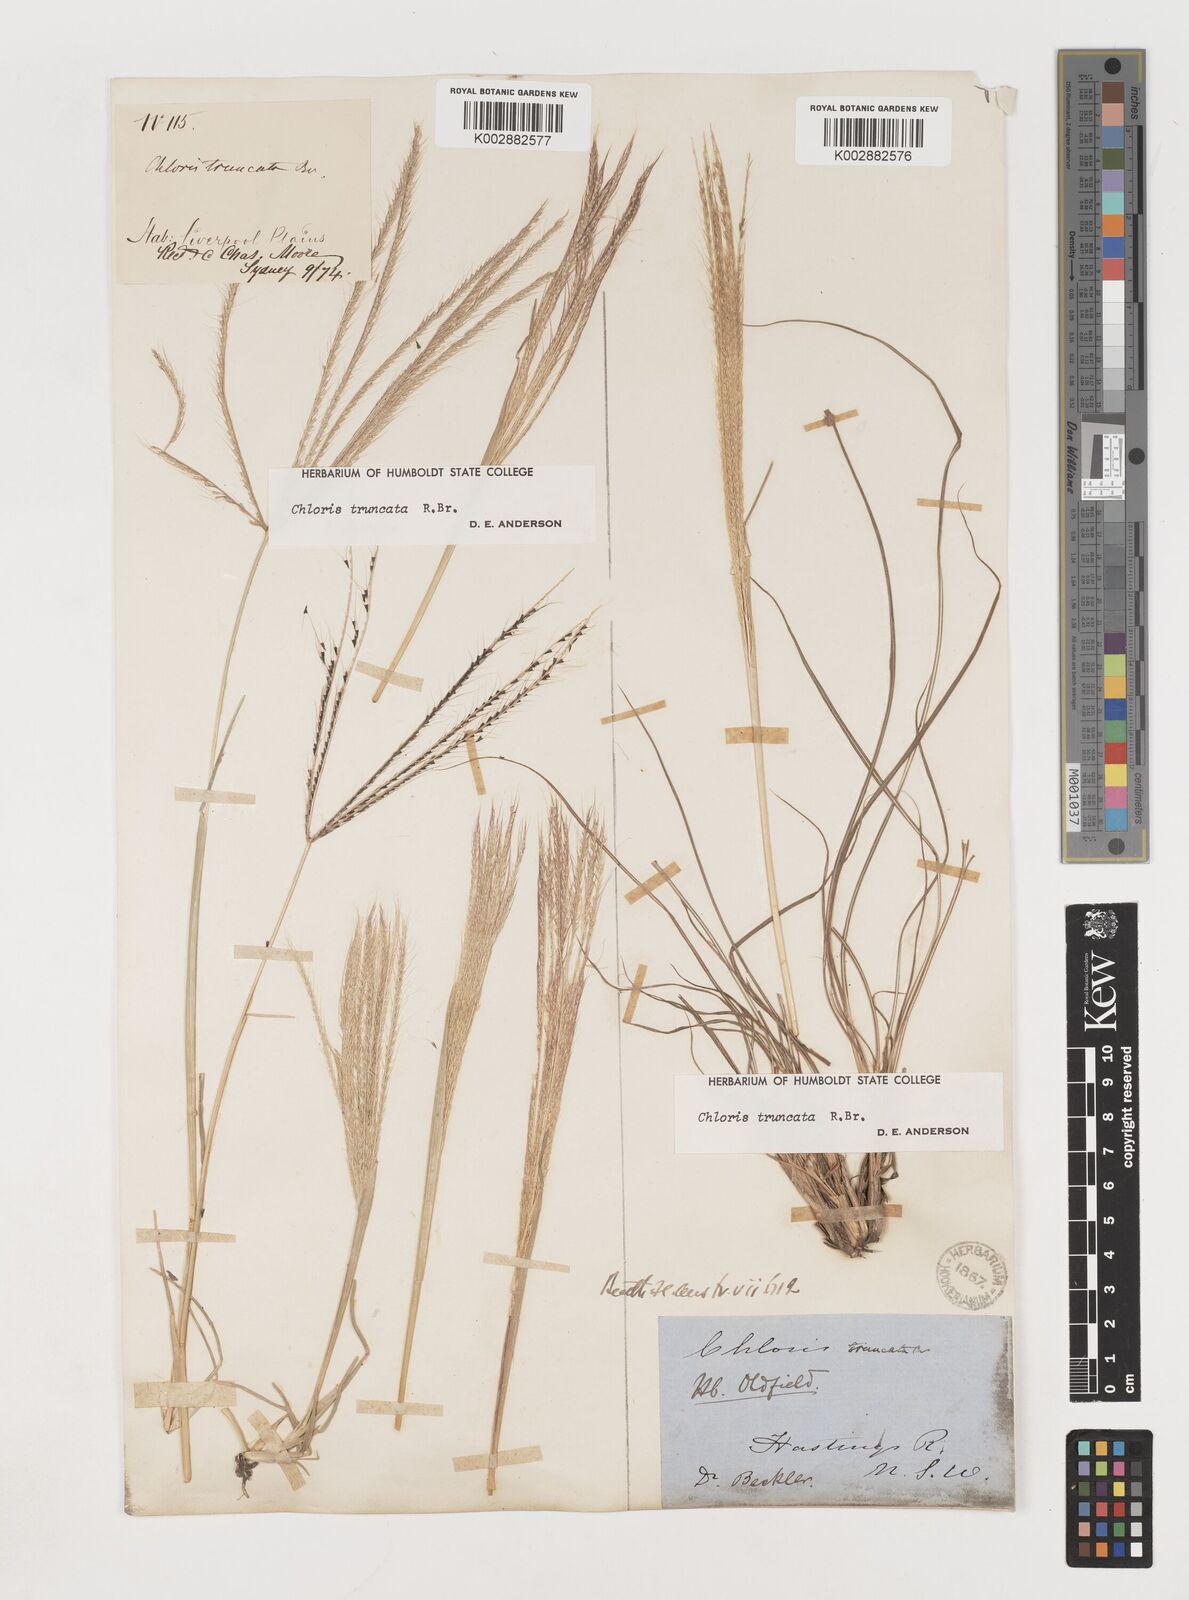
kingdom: Plantae
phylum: Tracheophyta
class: Liliopsida
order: Poales
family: Poaceae
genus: Chloris
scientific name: Chloris truncata
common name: Windmill-grass
